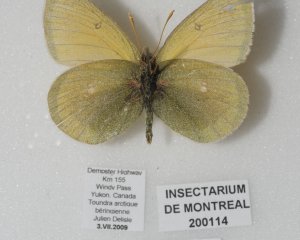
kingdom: Animalia
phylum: Arthropoda
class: Insecta
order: Lepidoptera
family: Pieridae
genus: Colias
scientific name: Colias canadensis
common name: Canadian Sulphur
